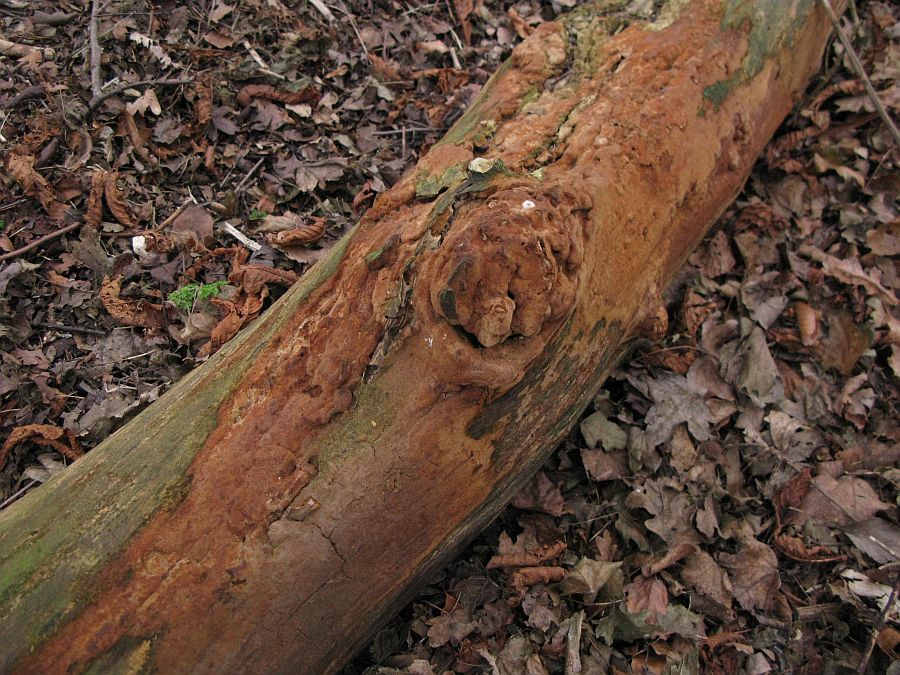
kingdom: Fungi
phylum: Basidiomycota
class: Agaricomycetes
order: Hymenochaetales
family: Hymenochaetaceae
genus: Fuscoporia
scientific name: Fuscoporia ferrea
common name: skorpe-ildporesvamp
